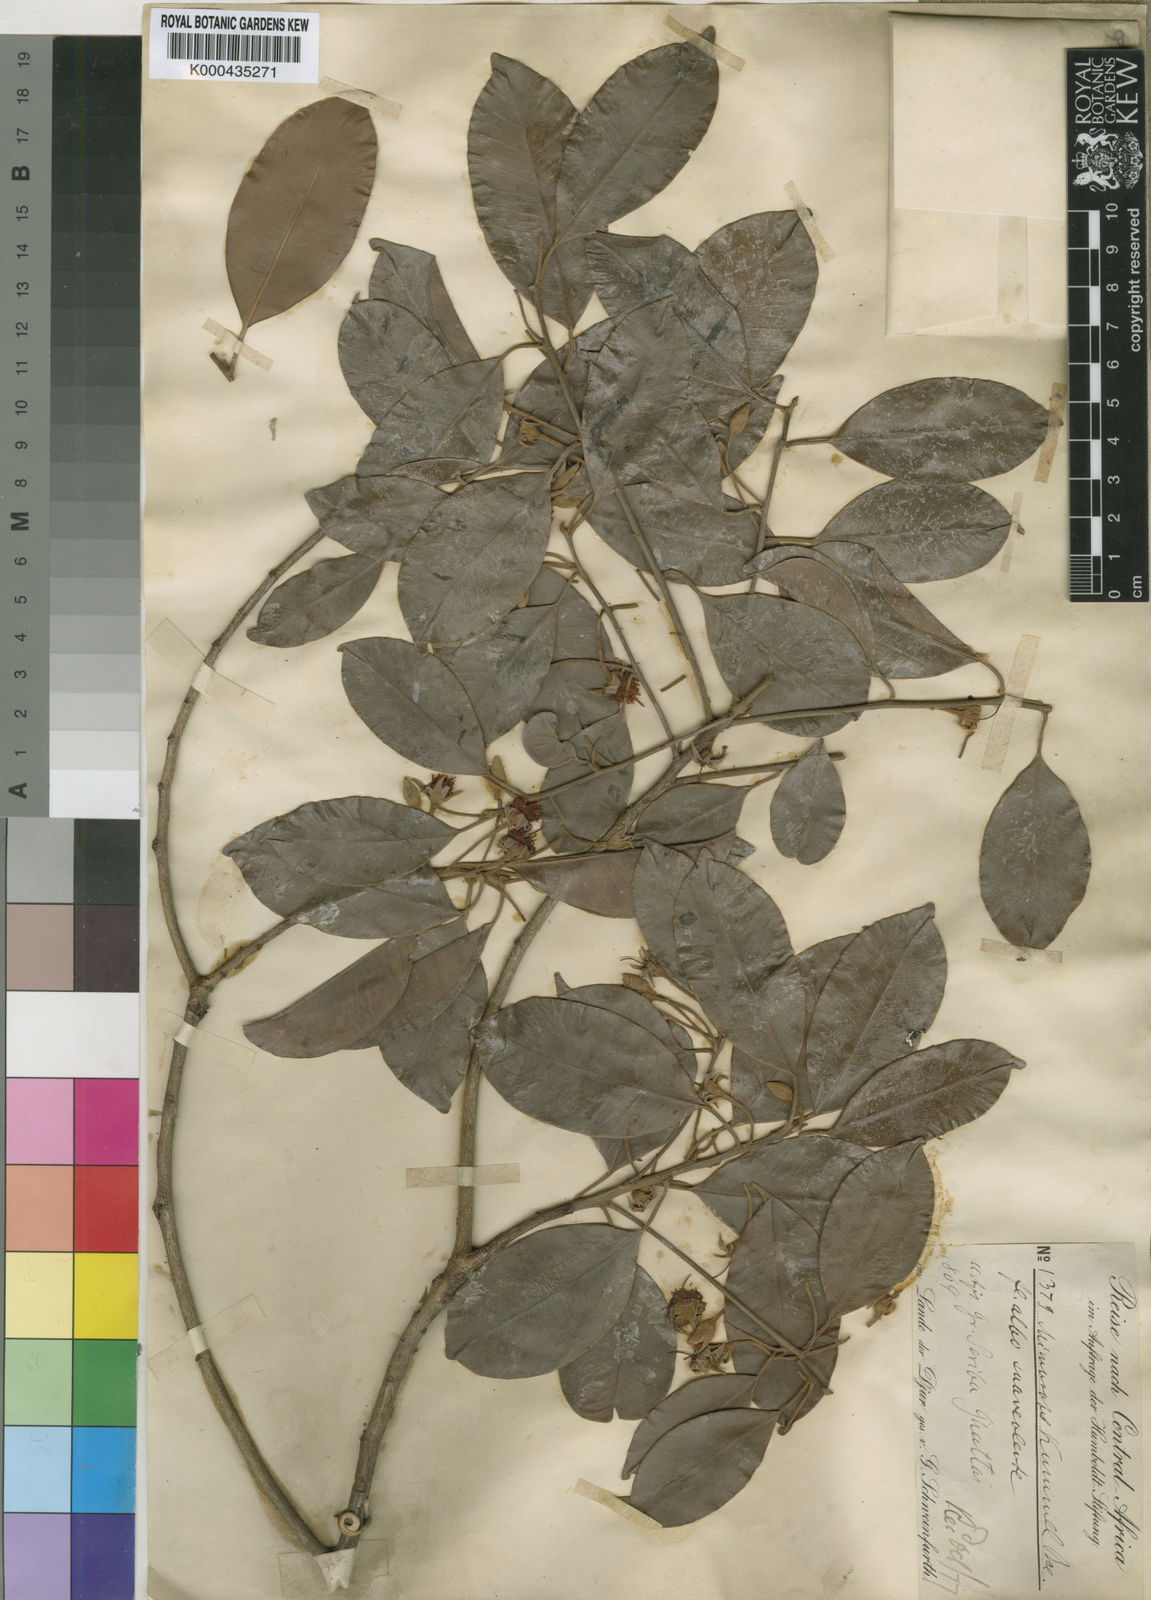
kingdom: Plantae
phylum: Tracheophyta
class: Magnoliopsida
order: Ericales
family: Sapotaceae
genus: Mimusops
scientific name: Mimusops kummel
